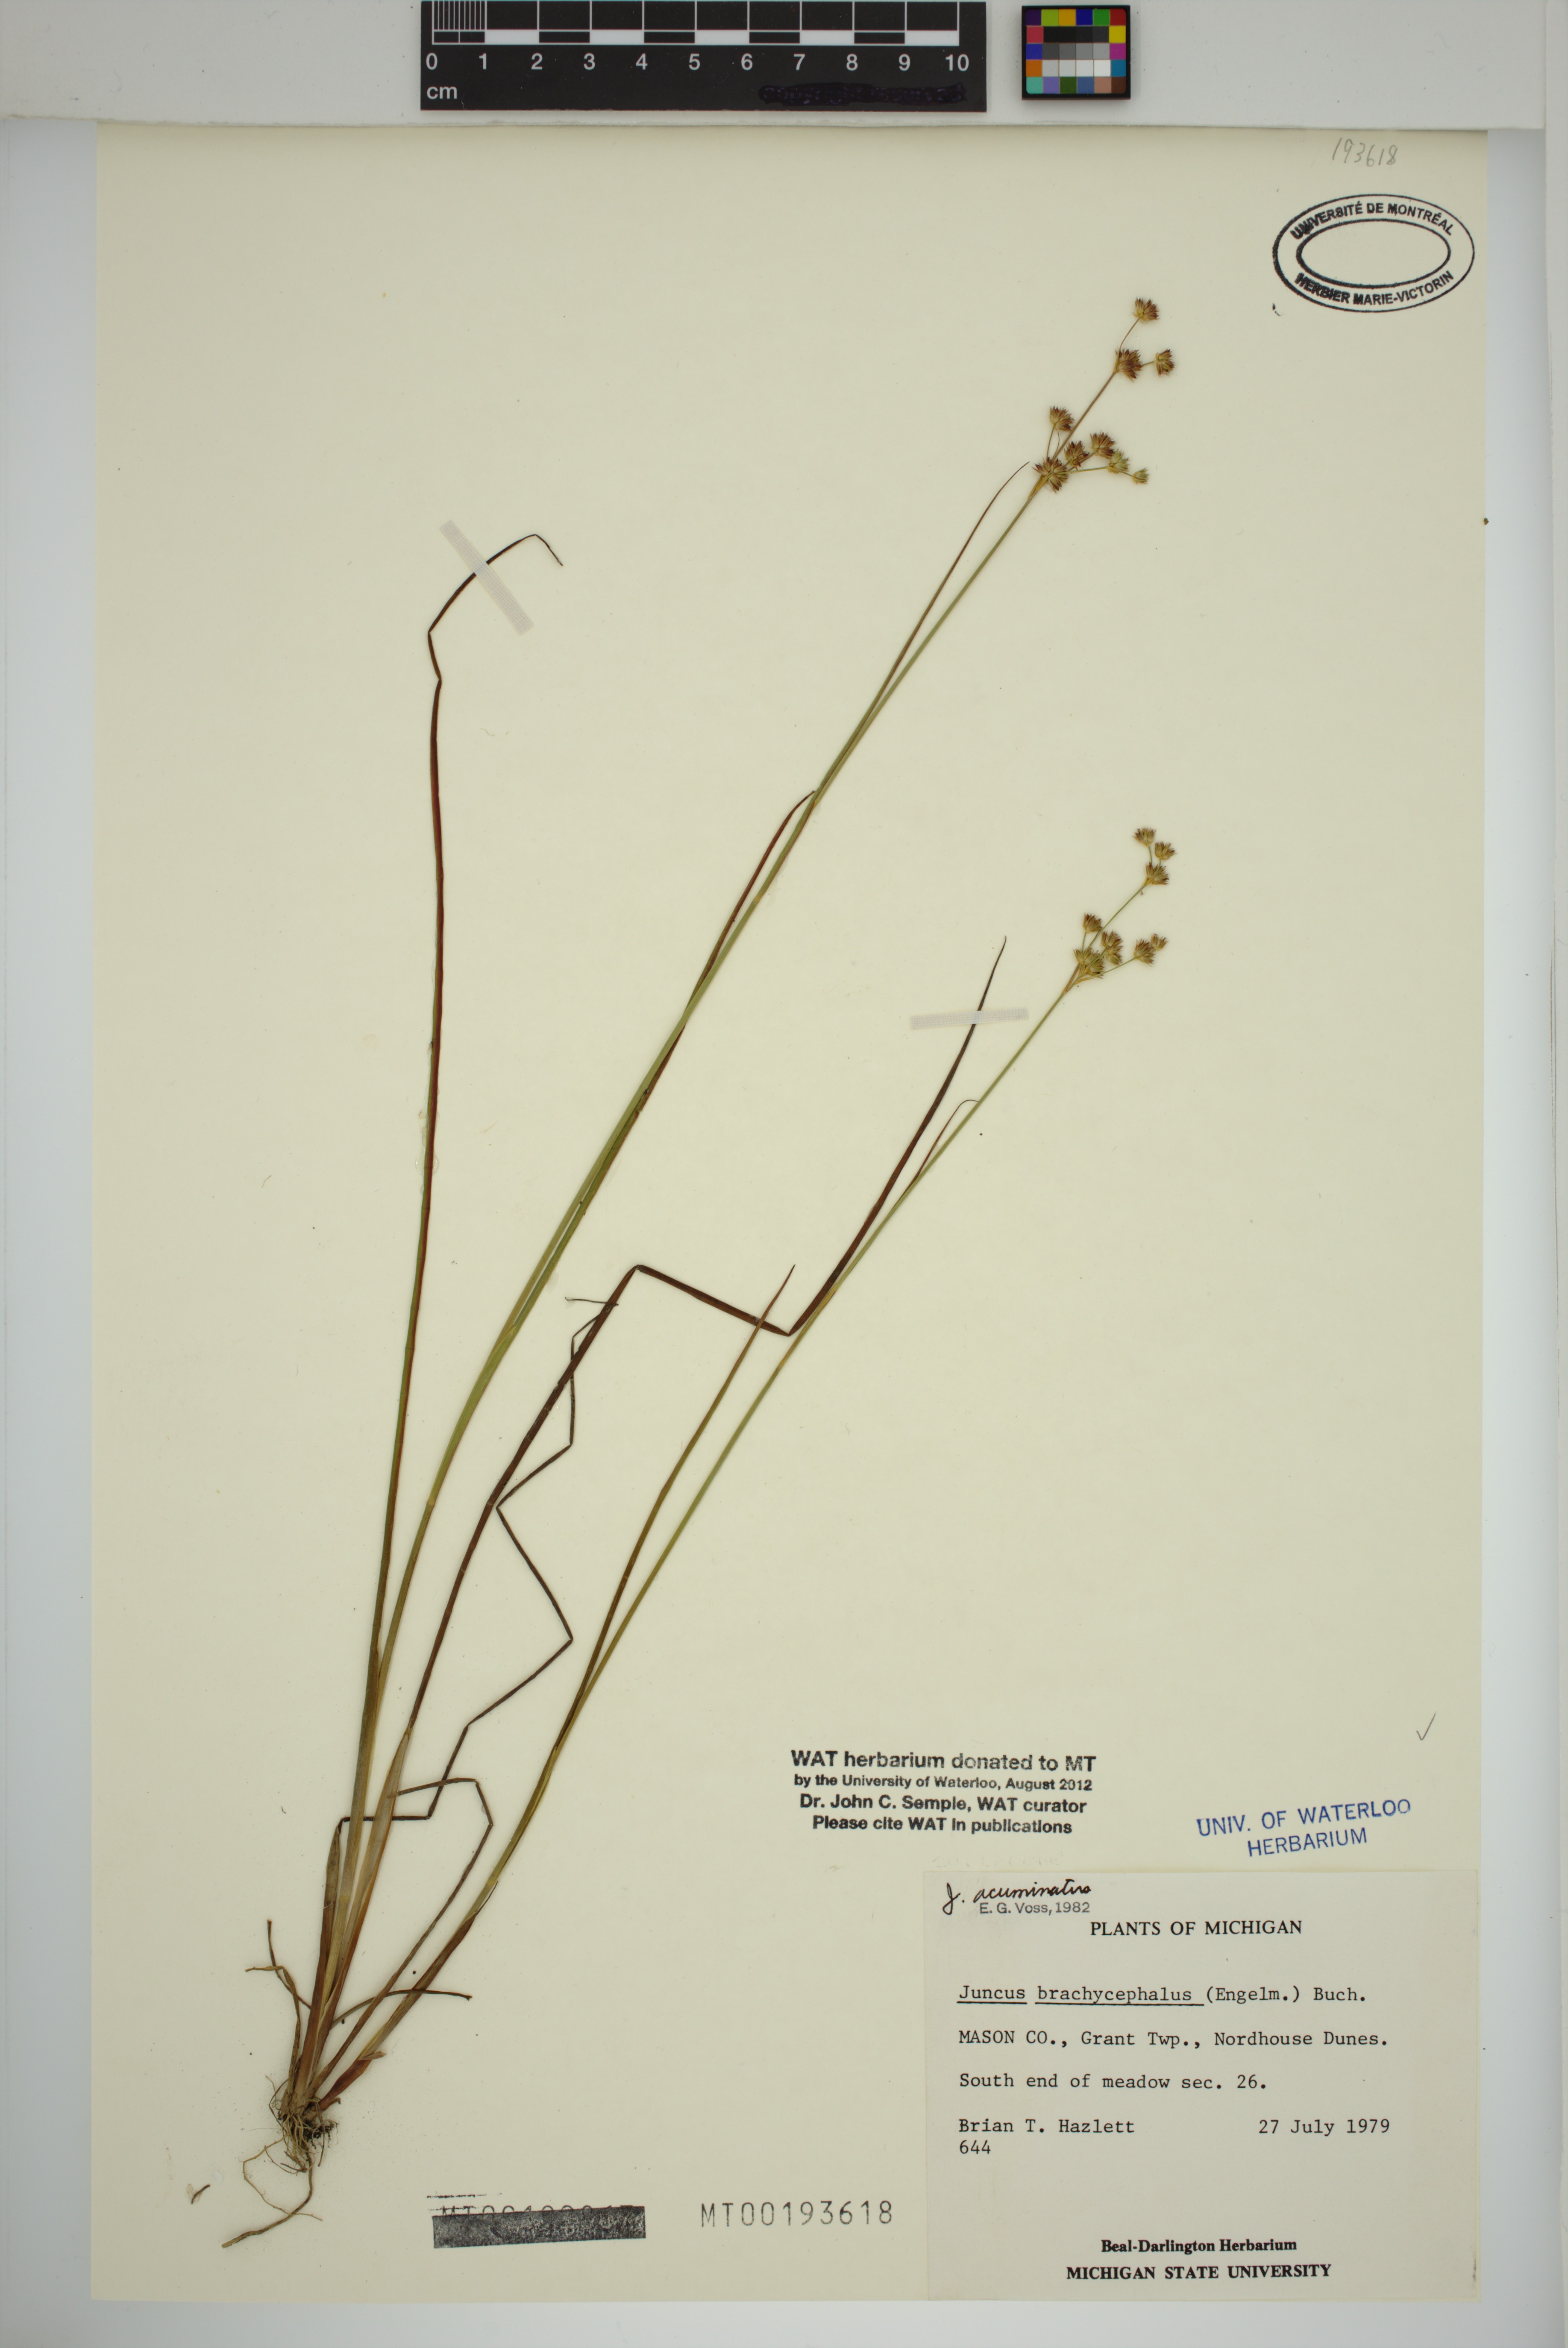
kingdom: Plantae
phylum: Tracheophyta
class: Liliopsida
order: Poales
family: Juncaceae
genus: Juncus
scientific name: Juncus acuminatus
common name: Knotty-leaved rush
